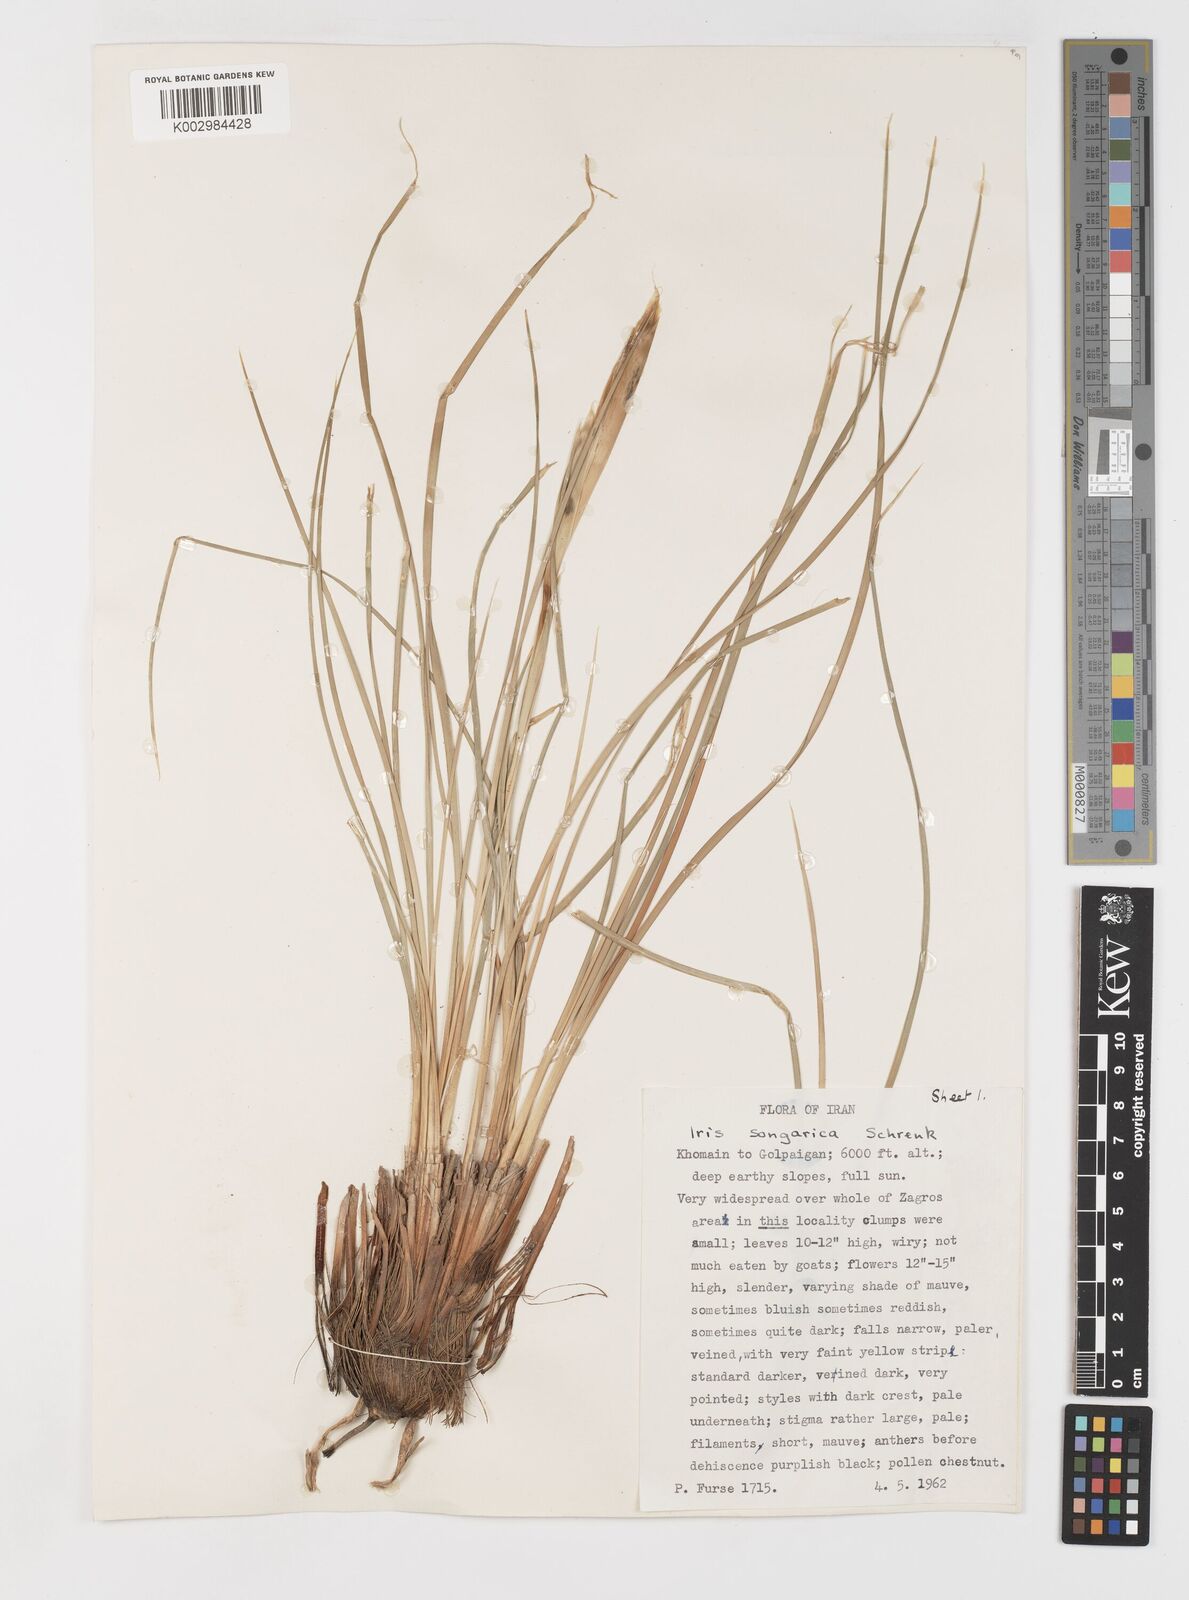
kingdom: Plantae
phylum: Tracheophyta
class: Liliopsida
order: Asparagales
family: Iridaceae
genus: Iris
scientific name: Iris songarica
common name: Songar iris
